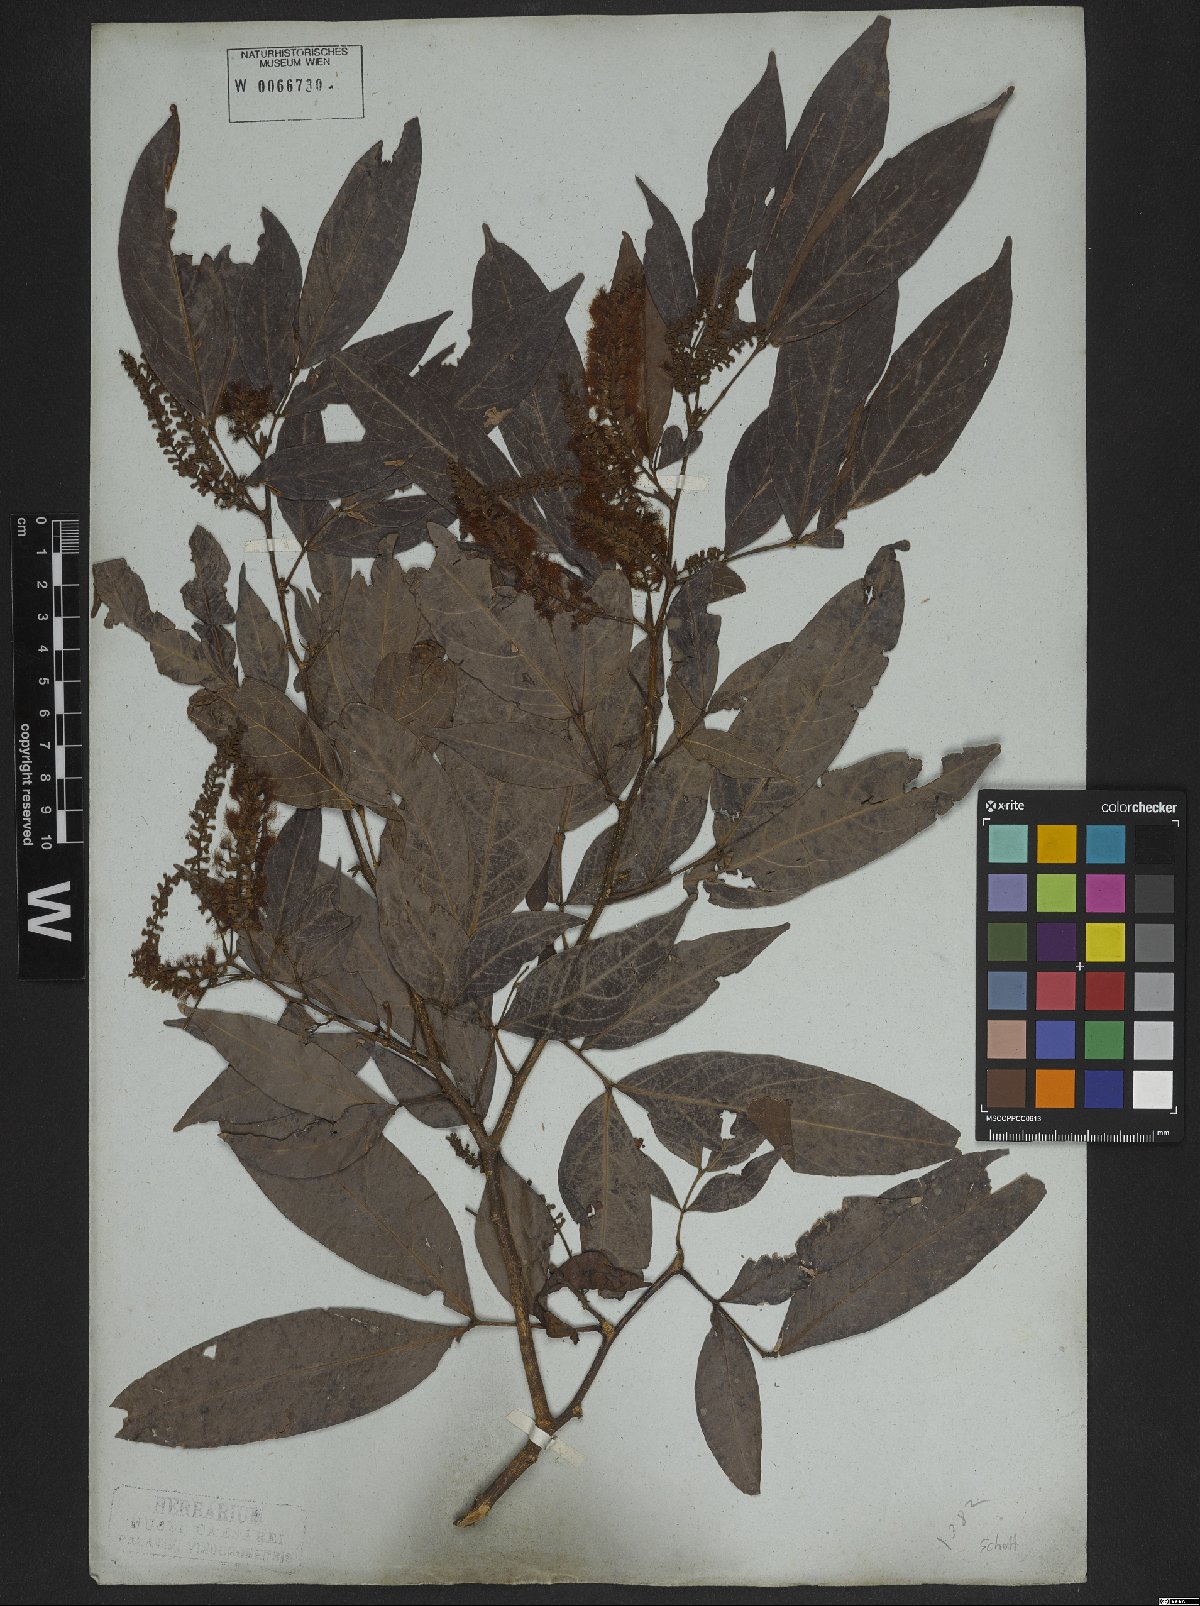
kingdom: Plantae
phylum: Tracheophyta
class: Magnoliopsida
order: Fabales
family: Fabaceae
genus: Inga
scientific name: Inga marginata
